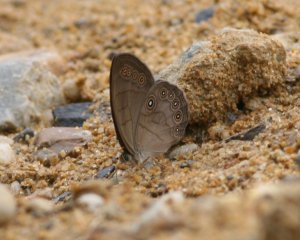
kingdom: Animalia
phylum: Arthropoda
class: Insecta
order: Lepidoptera
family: Nymphalidae
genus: Lethe
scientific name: Lethe eurydice
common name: Appalachian Eyed Brown
